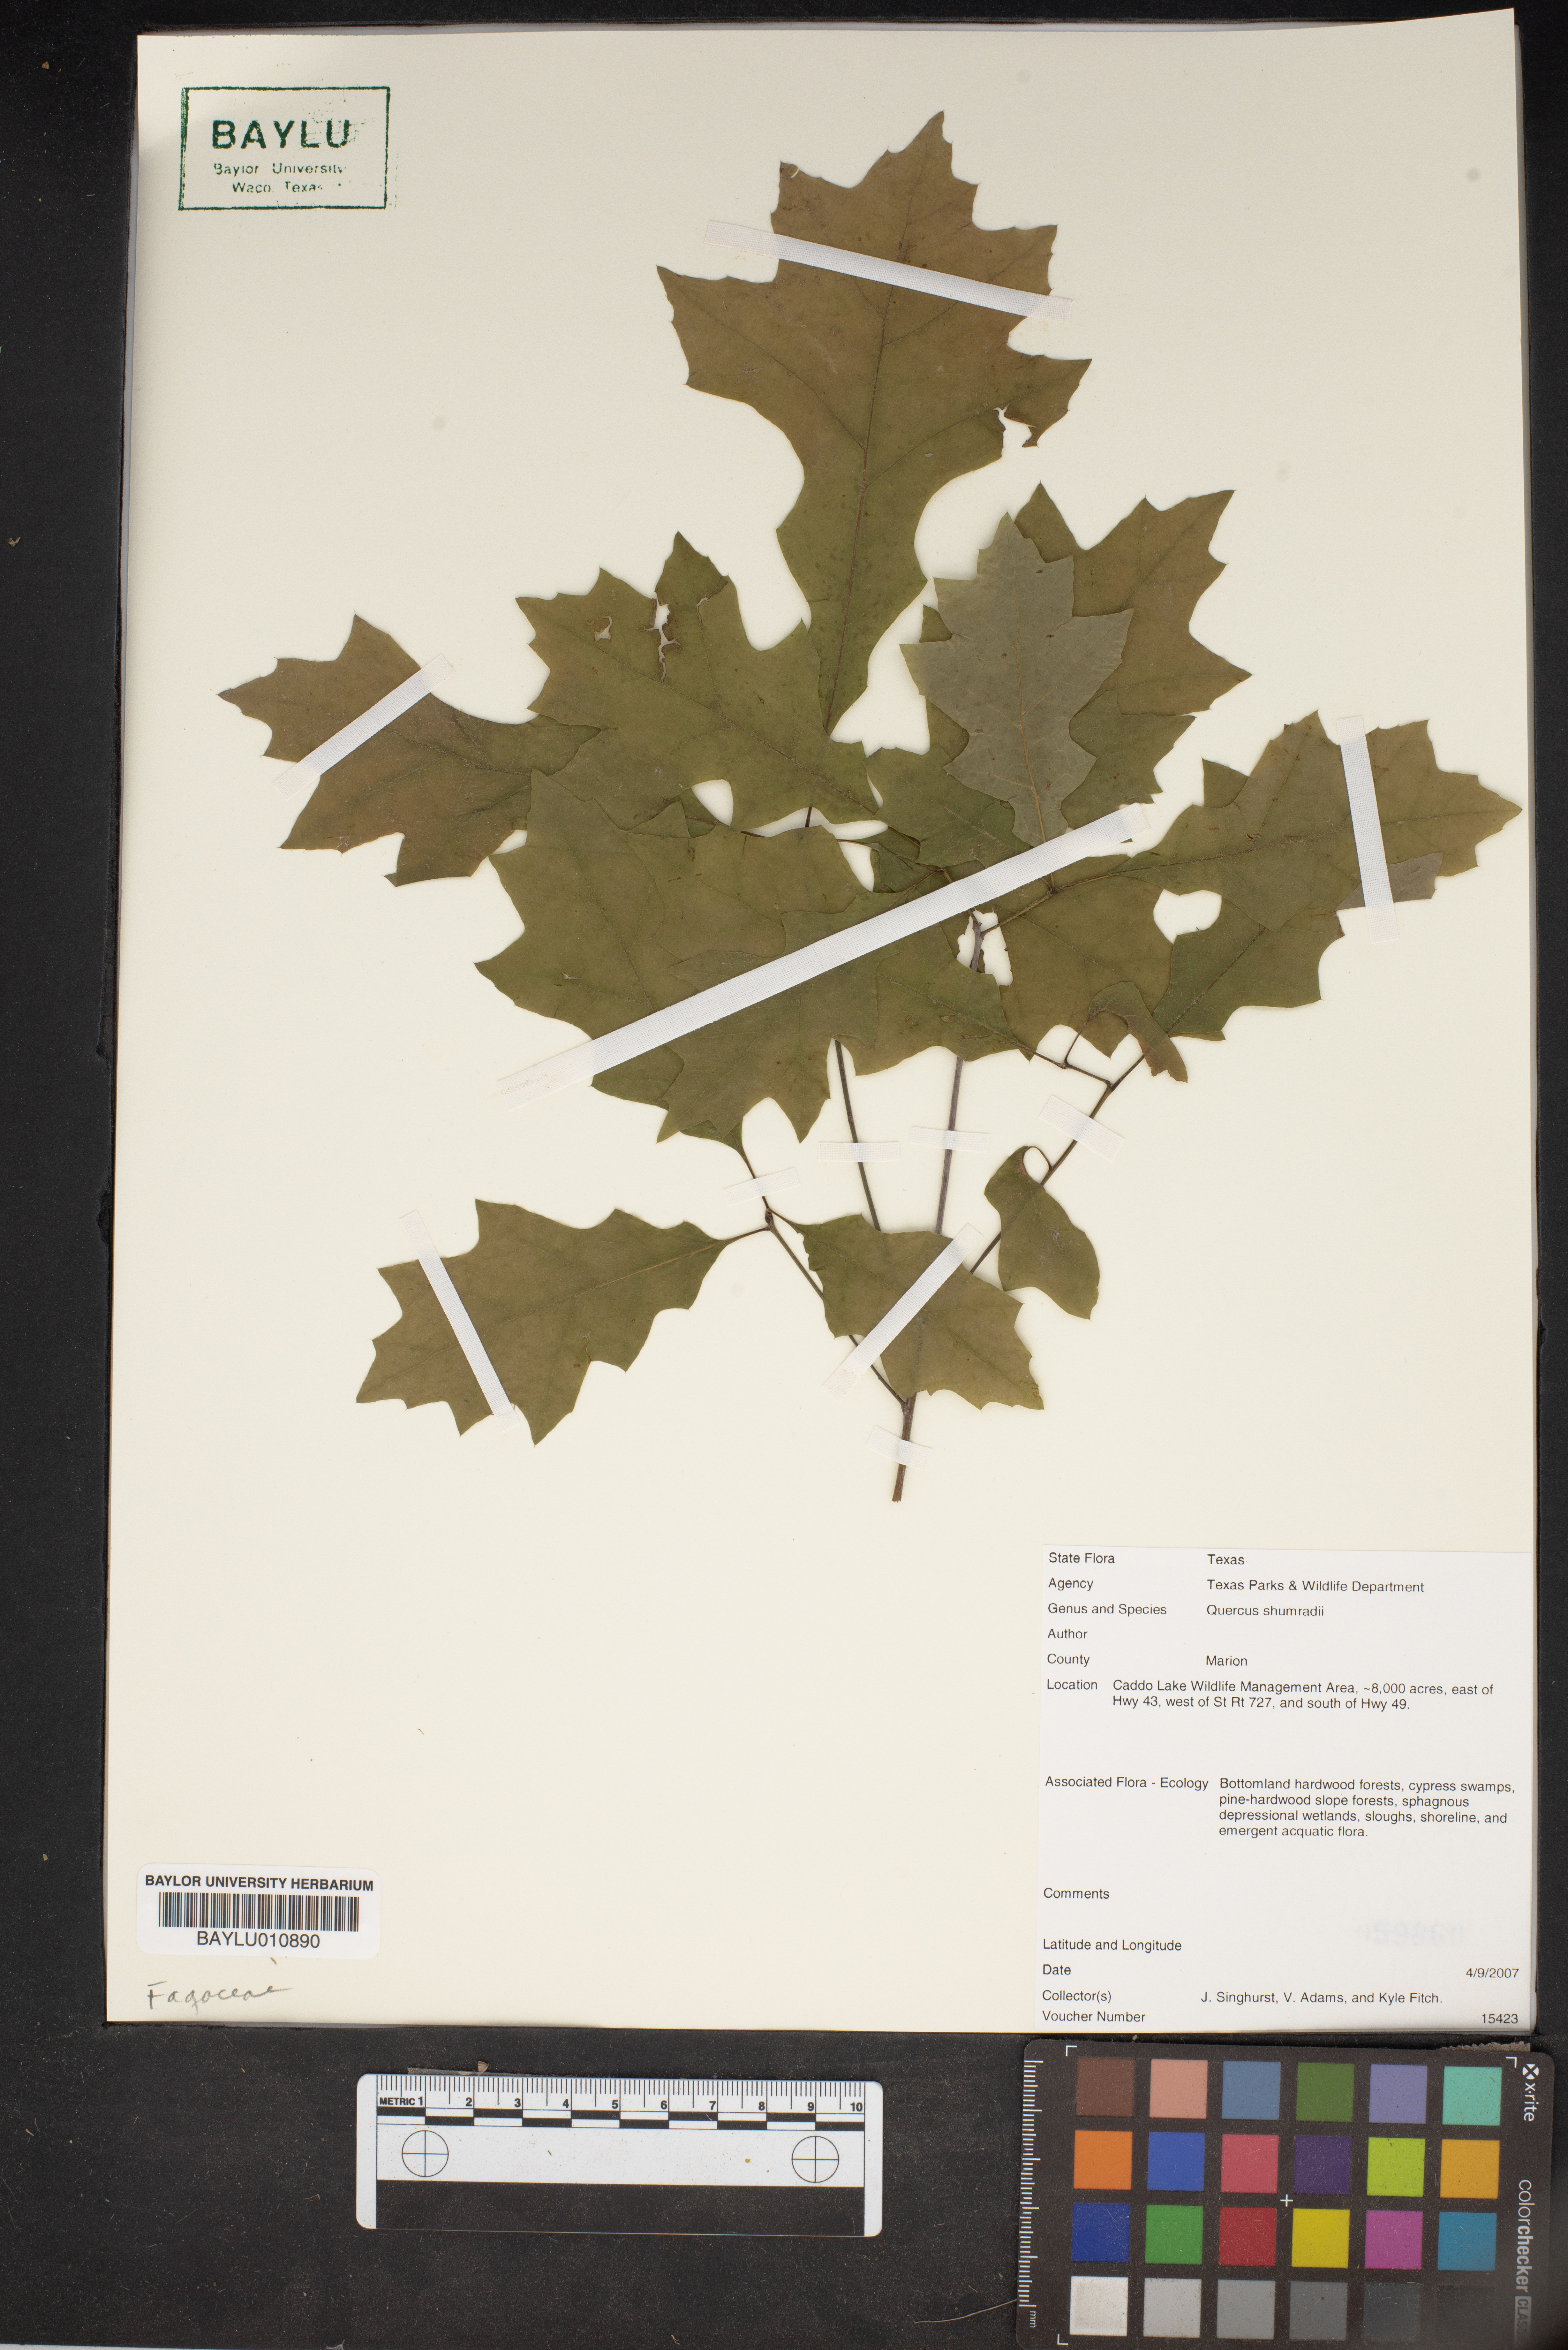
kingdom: Plantae
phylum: Tracheophyta
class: Magnoliopsida
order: Fagales
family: Fagaceae
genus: Quercus
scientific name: Quercus shumardii
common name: Shumard oak
